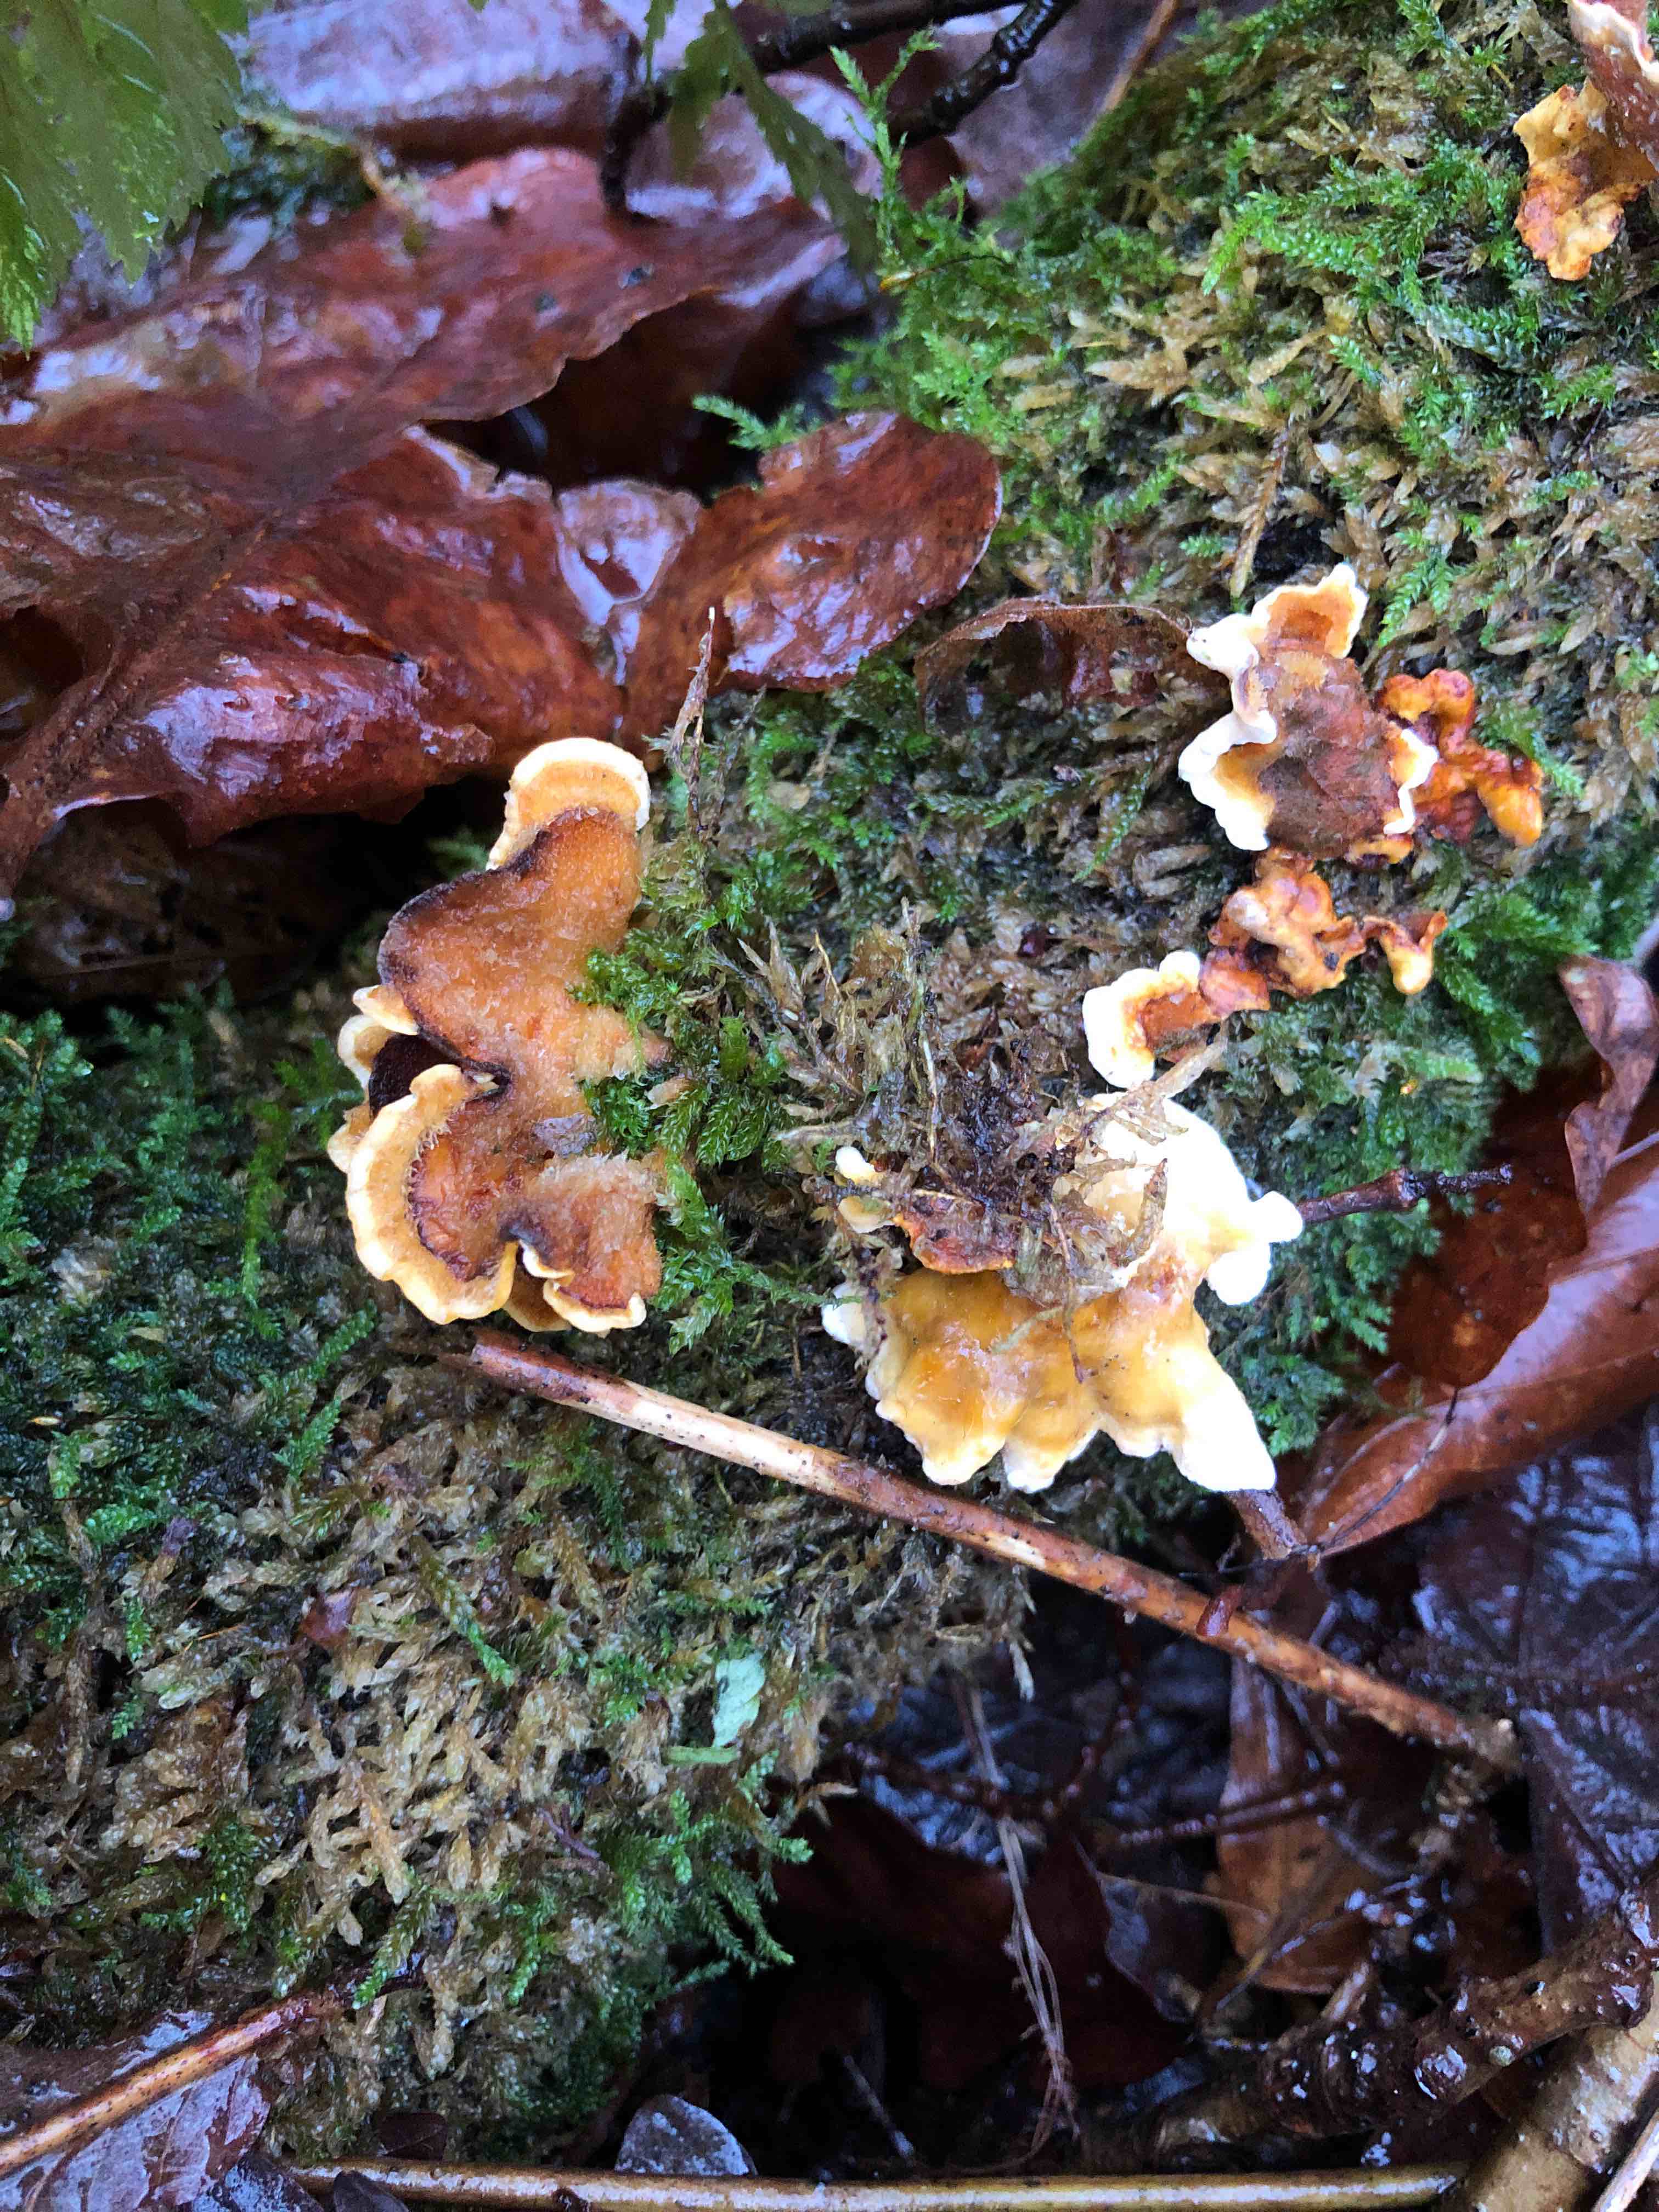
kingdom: Fungi
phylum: Basidiomycota
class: Agaricomycetes
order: Russulales
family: Stereaceae
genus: Stereum
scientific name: Stereum hirsutum
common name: håret lædersvamp
